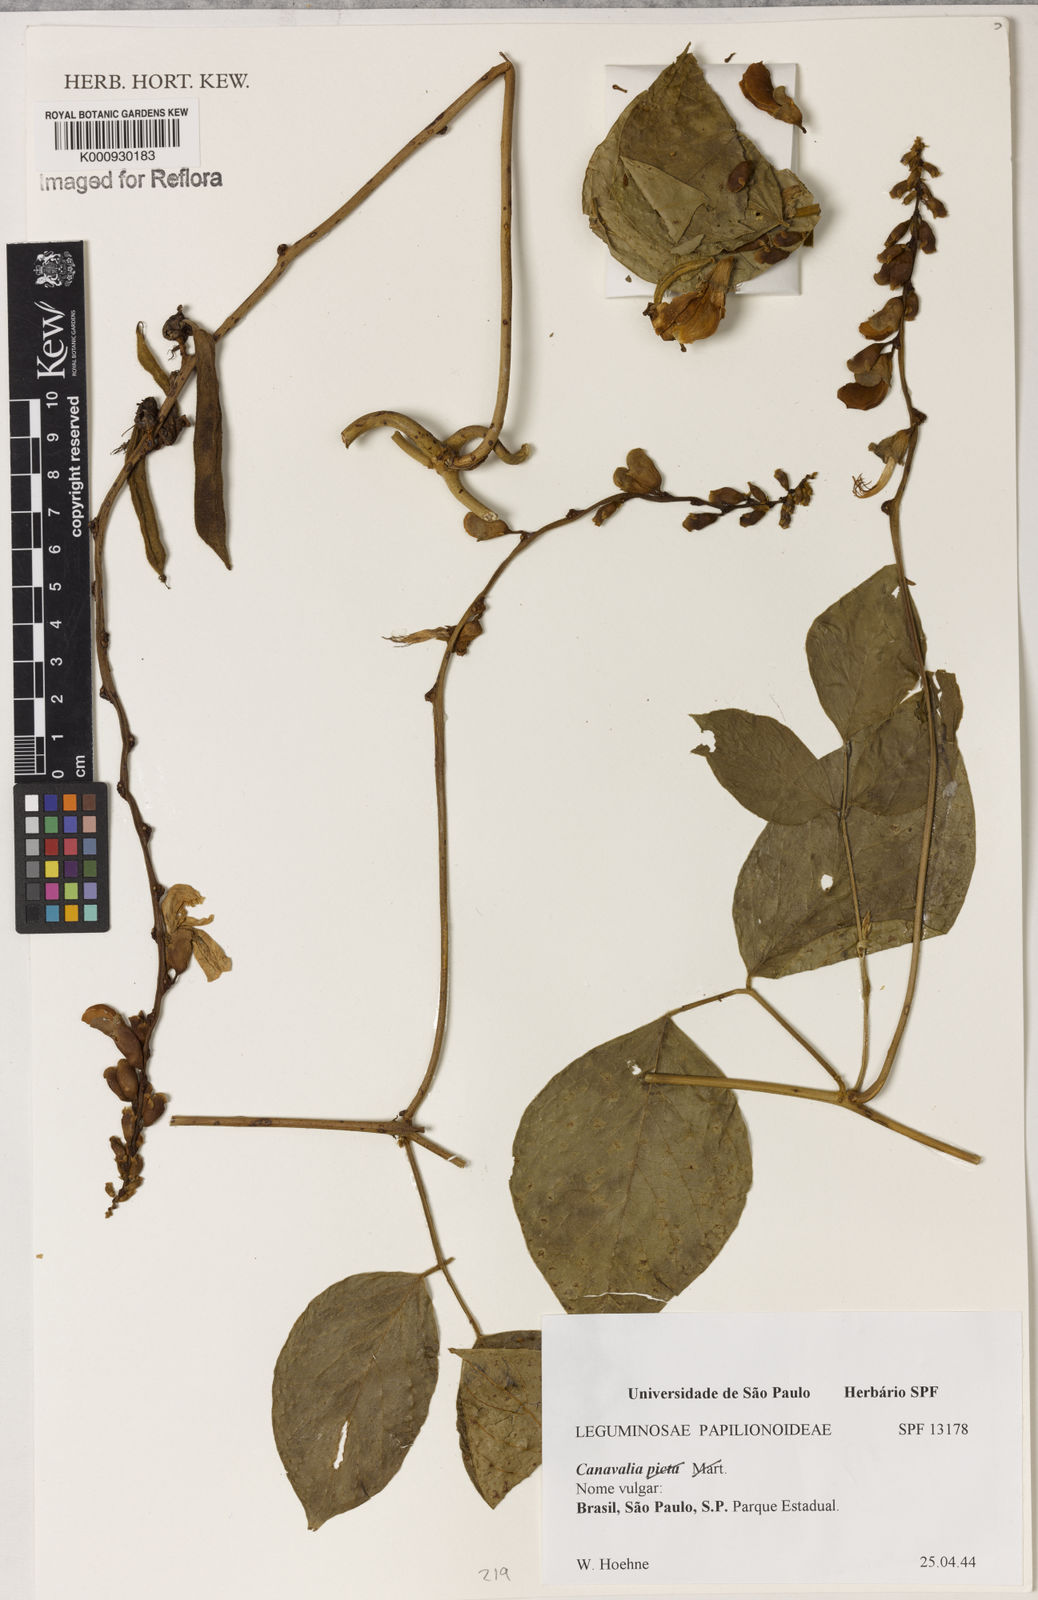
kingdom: Plantae
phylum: Tracheophyta
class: Magnoliopsida
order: Fabales
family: Fabaceae
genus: Canavalia
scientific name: Canavalia
